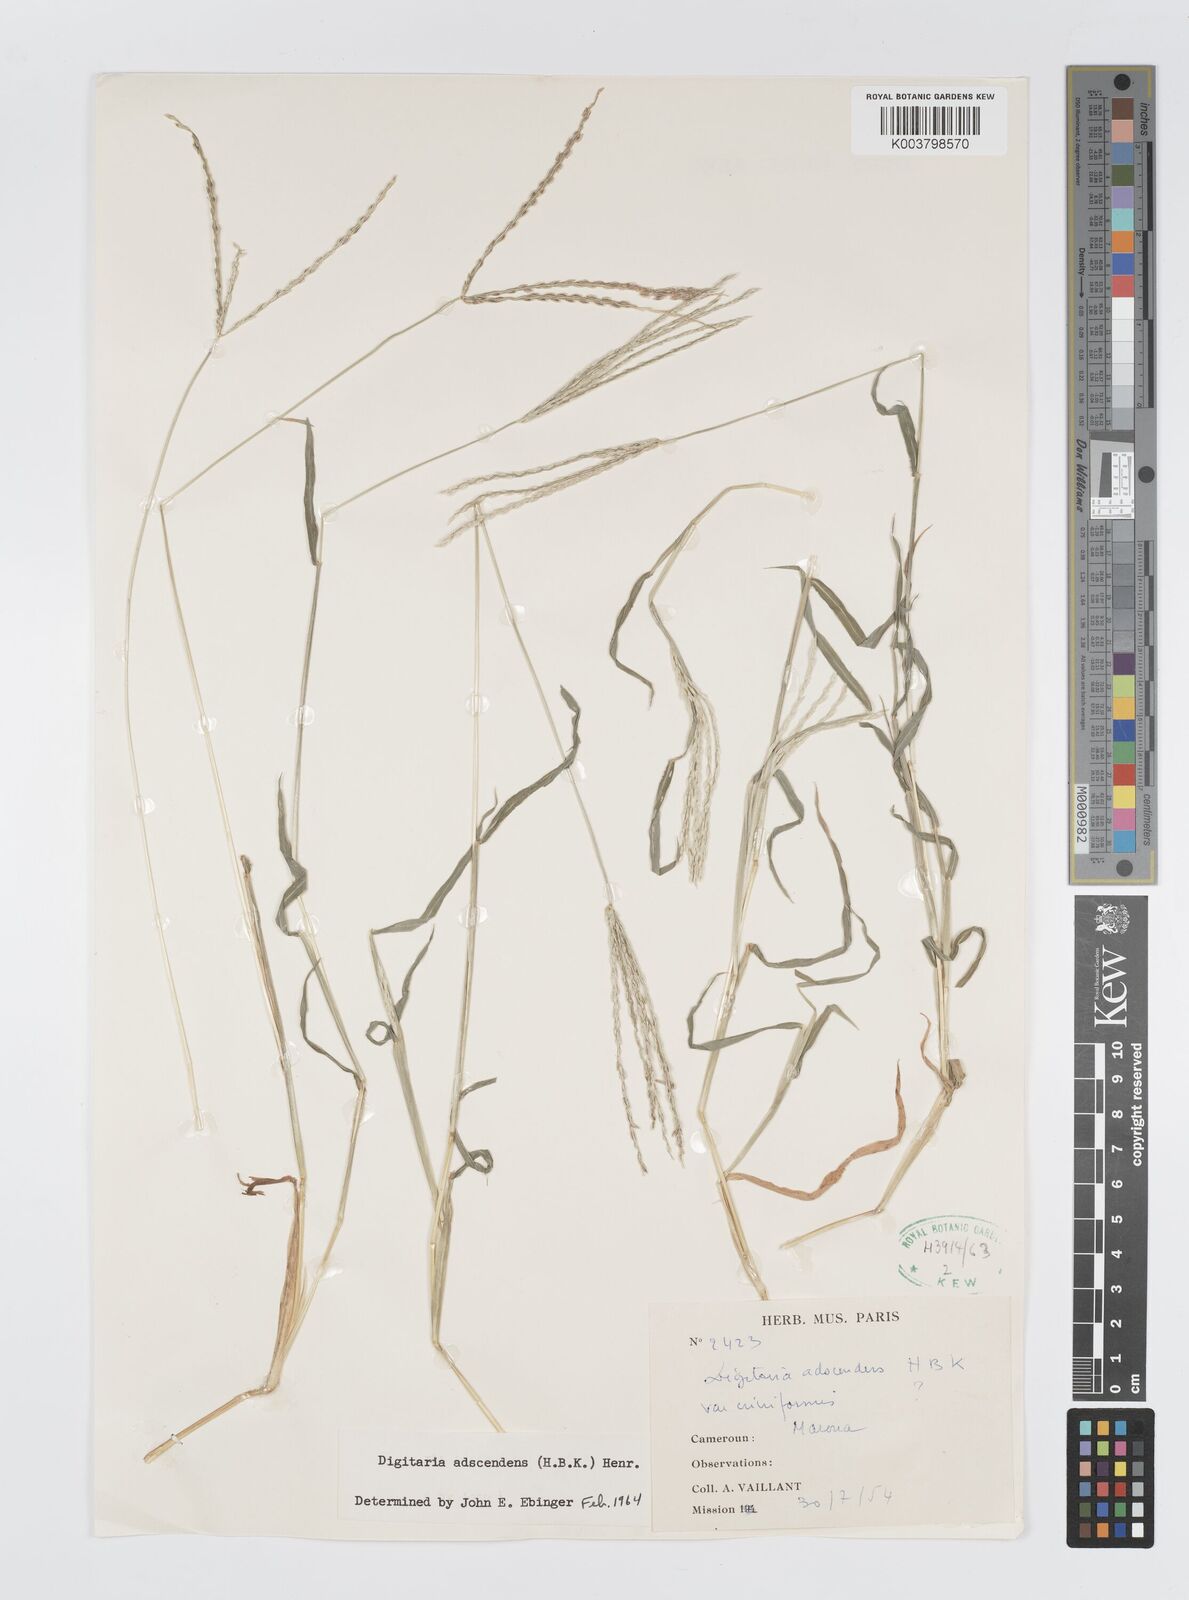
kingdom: Plantae
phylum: Tracheophyta
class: Liliopsida
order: Poales
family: Poaceae
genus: Digitaria
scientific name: Digitaria nuda
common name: Naked crabgrass
